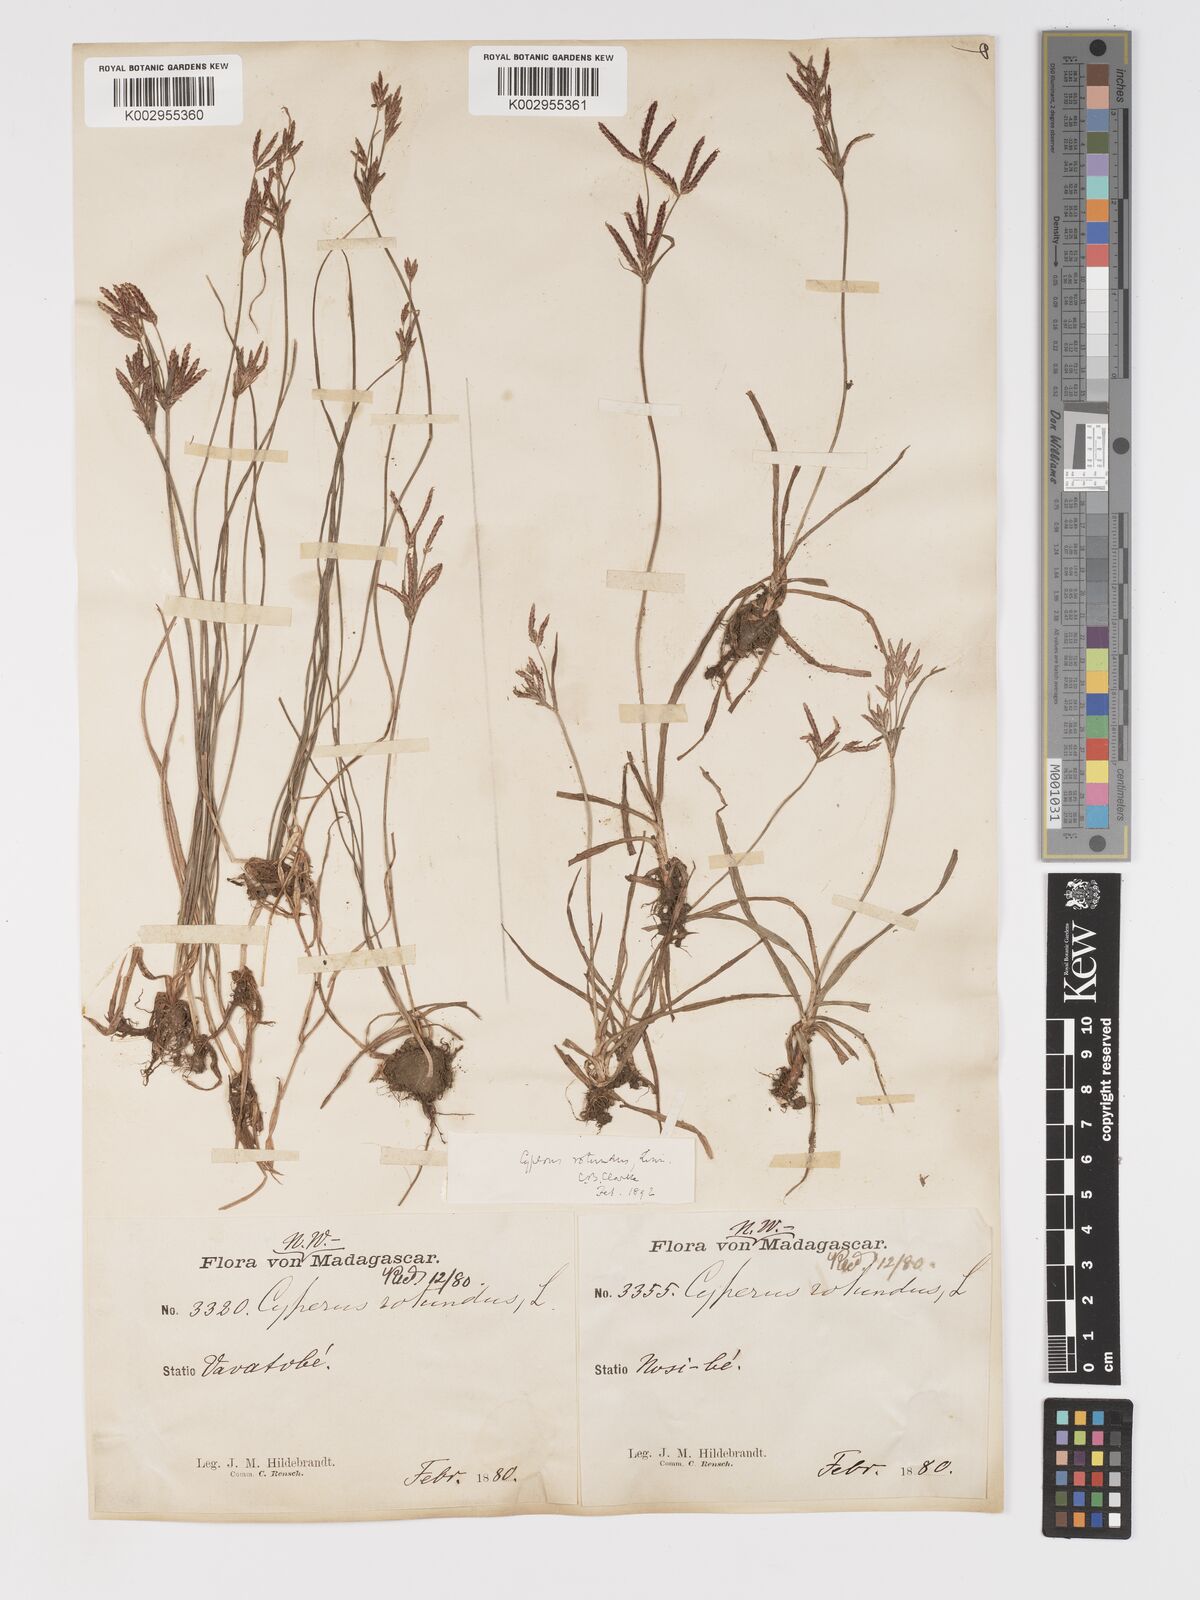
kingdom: Plantae
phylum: Tracheophyta
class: Liliopsida
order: Poales
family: Cyperaceae
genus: Cyperus
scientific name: Cyperus rotundus
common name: Nutgrass
